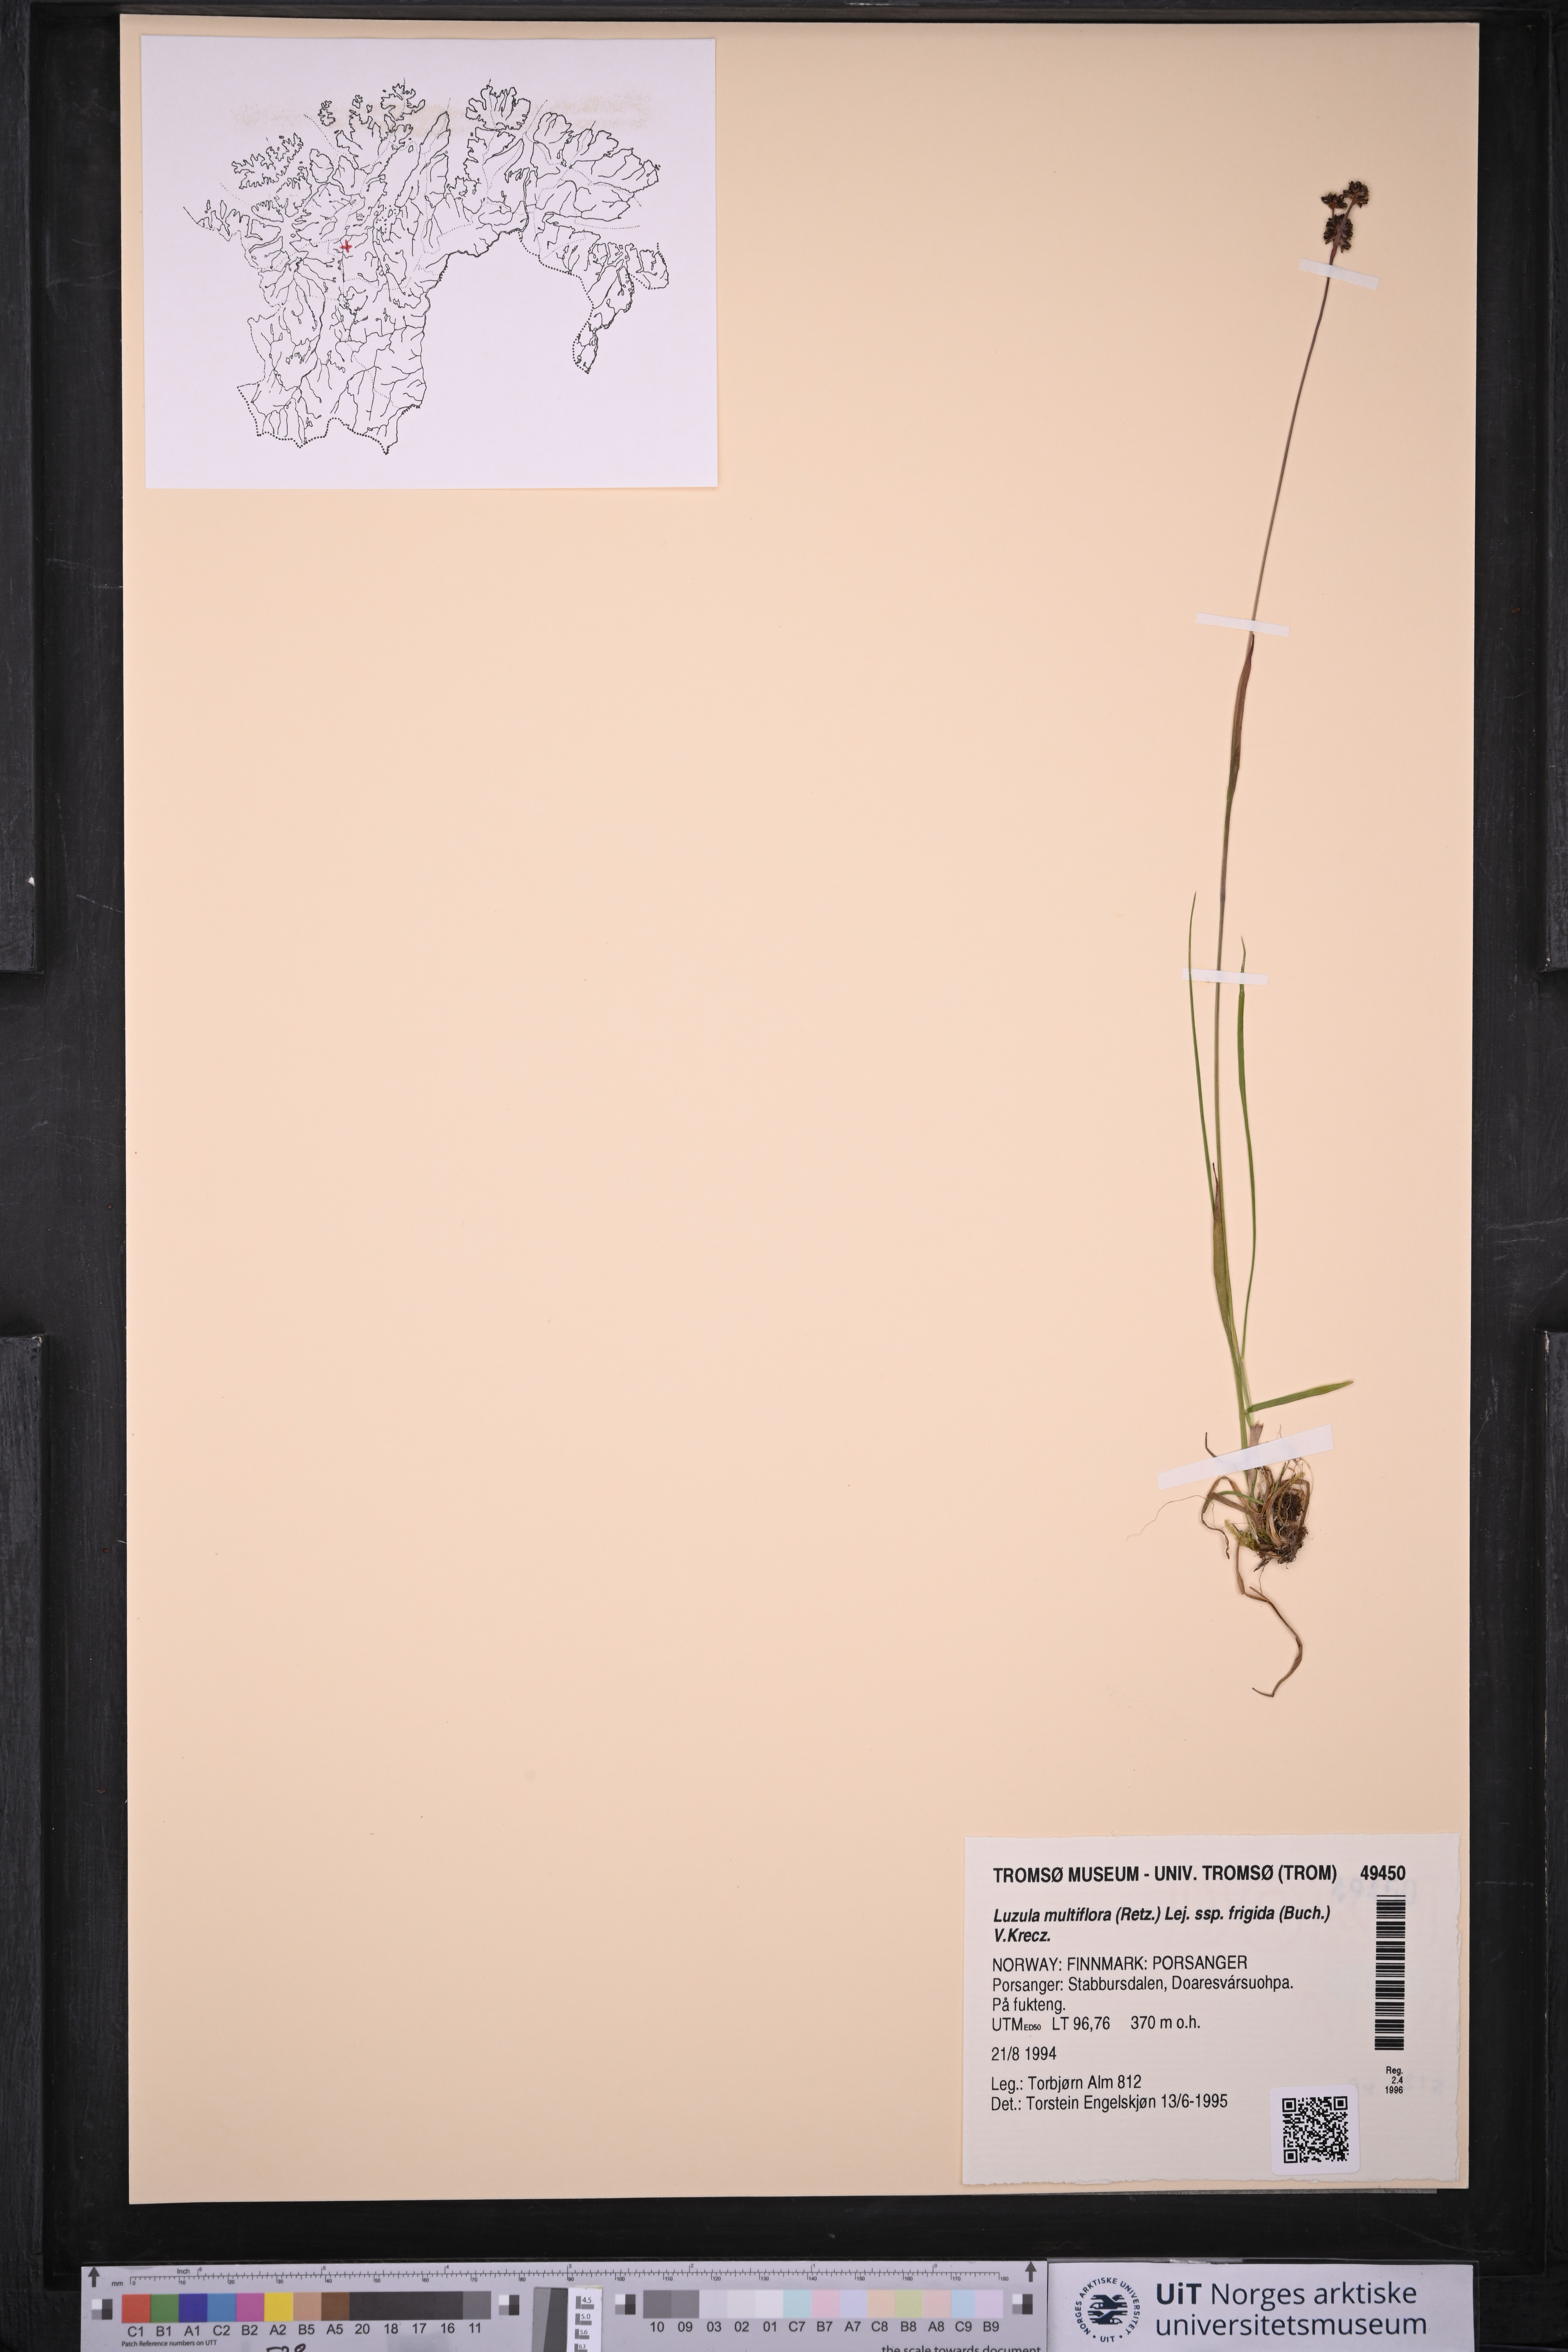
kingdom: Plantae
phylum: Tracheophyta
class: Liliopsida
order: Poales
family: Juncaceae
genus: Luzula
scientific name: Luzula multiflora
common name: Heath wood-rush
